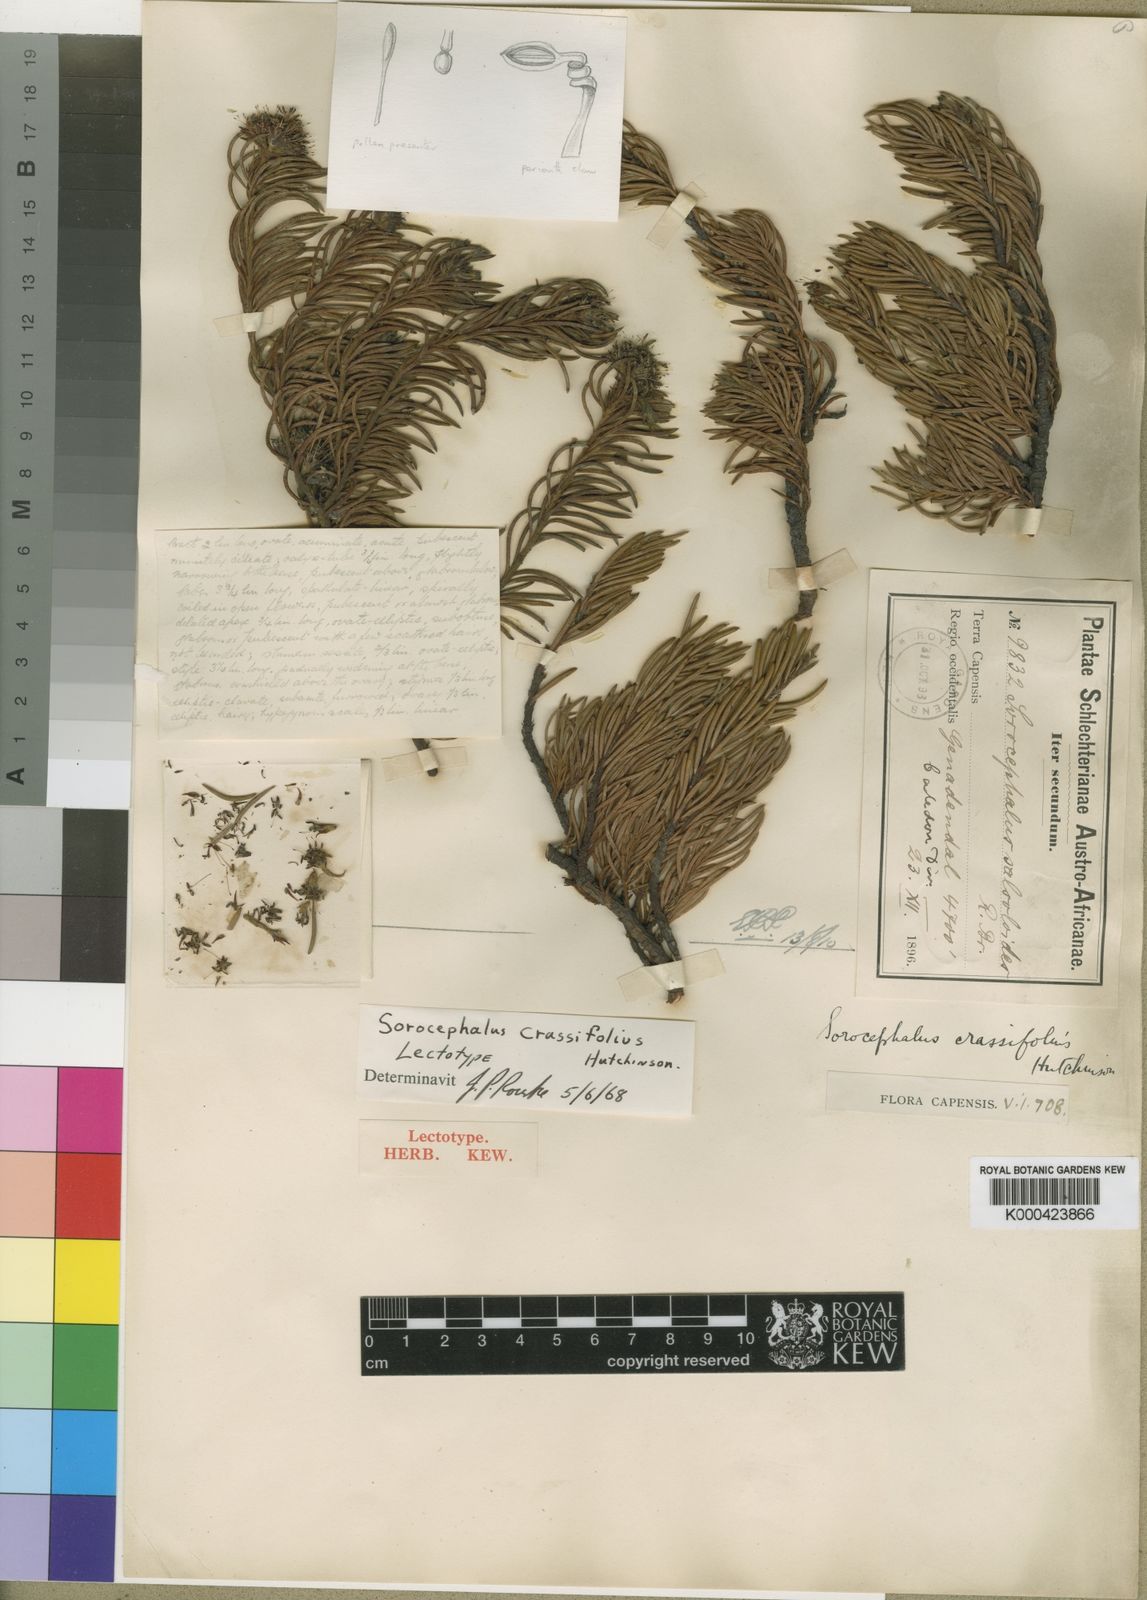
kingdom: Plantae
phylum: Tracheophyta
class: Magnoliopsida
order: Proteales
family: Proteaceae
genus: Sorocephalus
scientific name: Sorocephalus crassifolius
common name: Flowerless clusterhead
